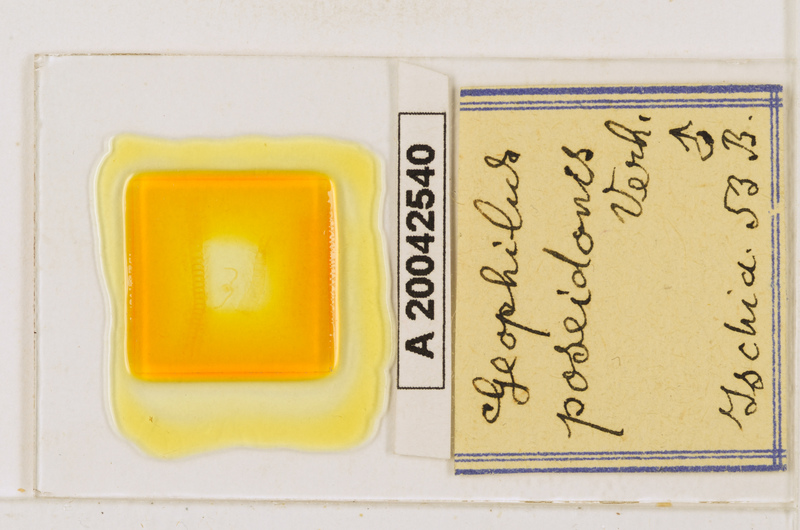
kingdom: Animalia
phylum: Arthropoda
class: Chilopoda
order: Geophilomorpha
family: Geophilidae
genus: Tuoba
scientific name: Tuoba poseidonis
